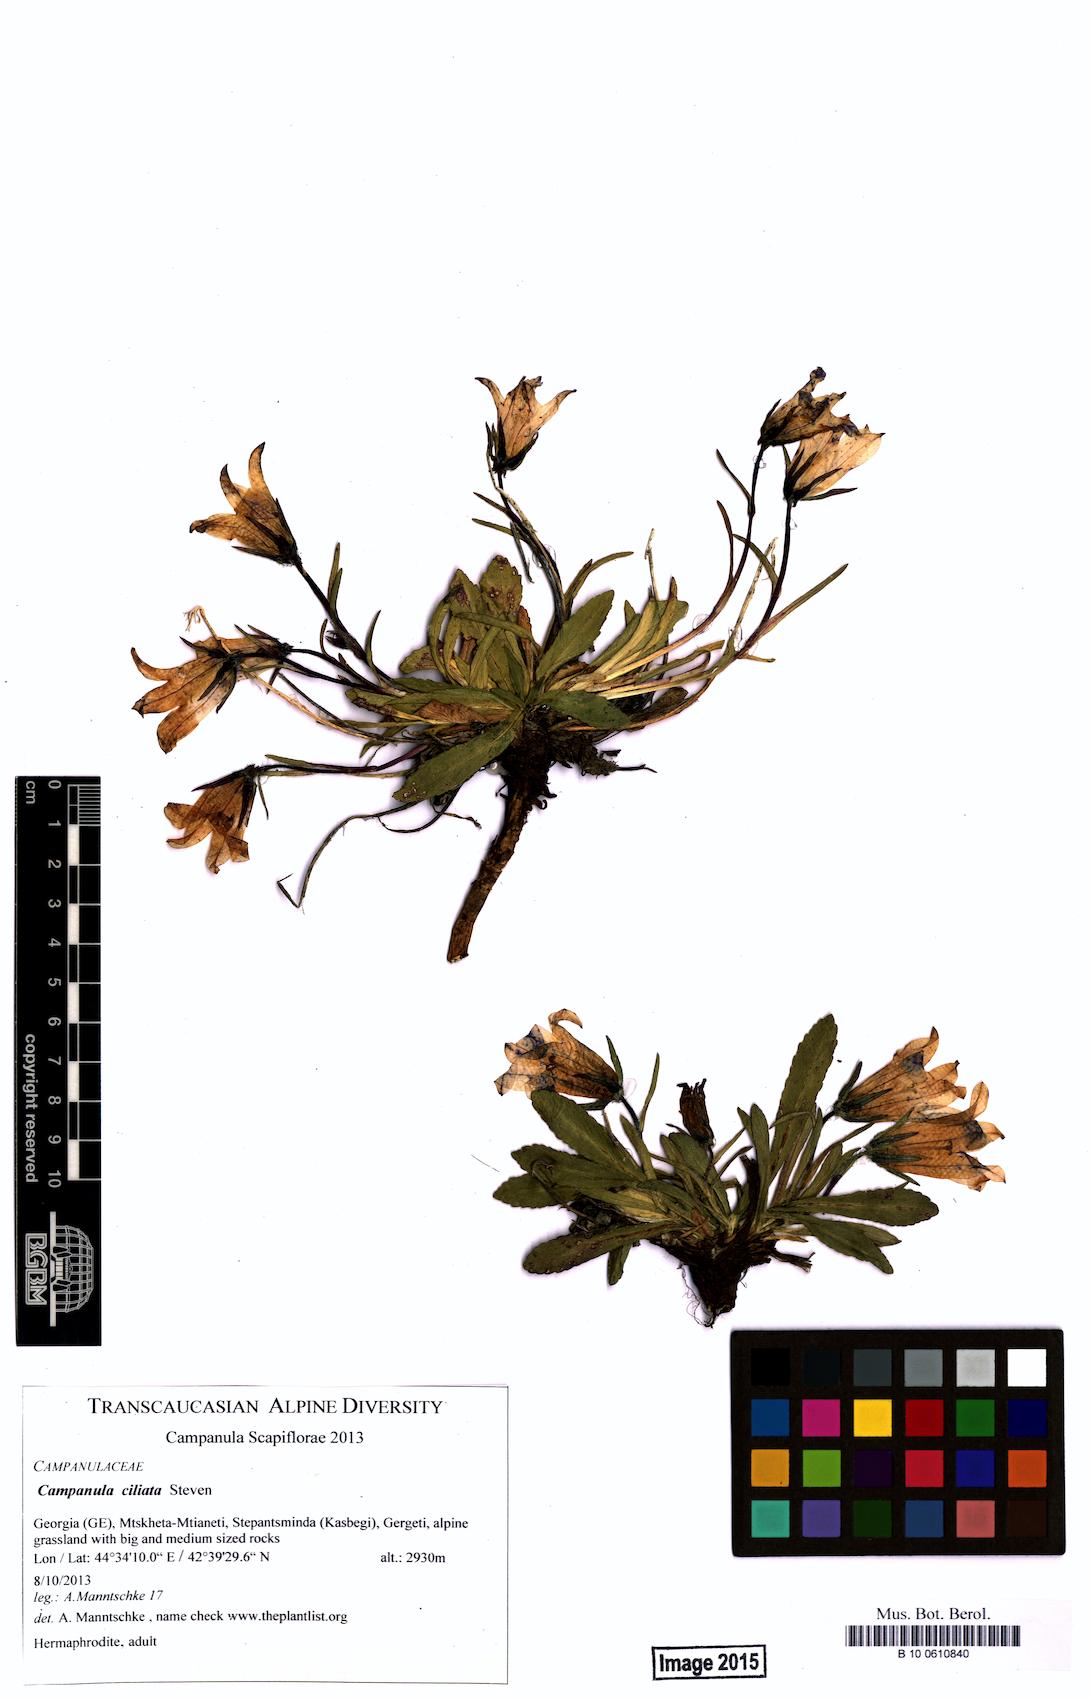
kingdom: Plantae
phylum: Tracheophyta
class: Magnoliopsida
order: Asterales
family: Campanulaceae
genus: Campanula
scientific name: Campanula ciliata
